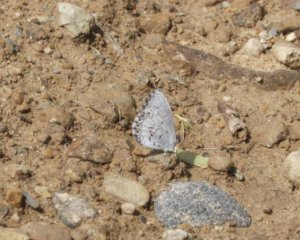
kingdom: Animalia
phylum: Arthropoda
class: Insecta
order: Lepidoptera
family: Lycaenidae
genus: Cyaniris
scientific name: Cyaniris neglecta
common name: Summer Azure
